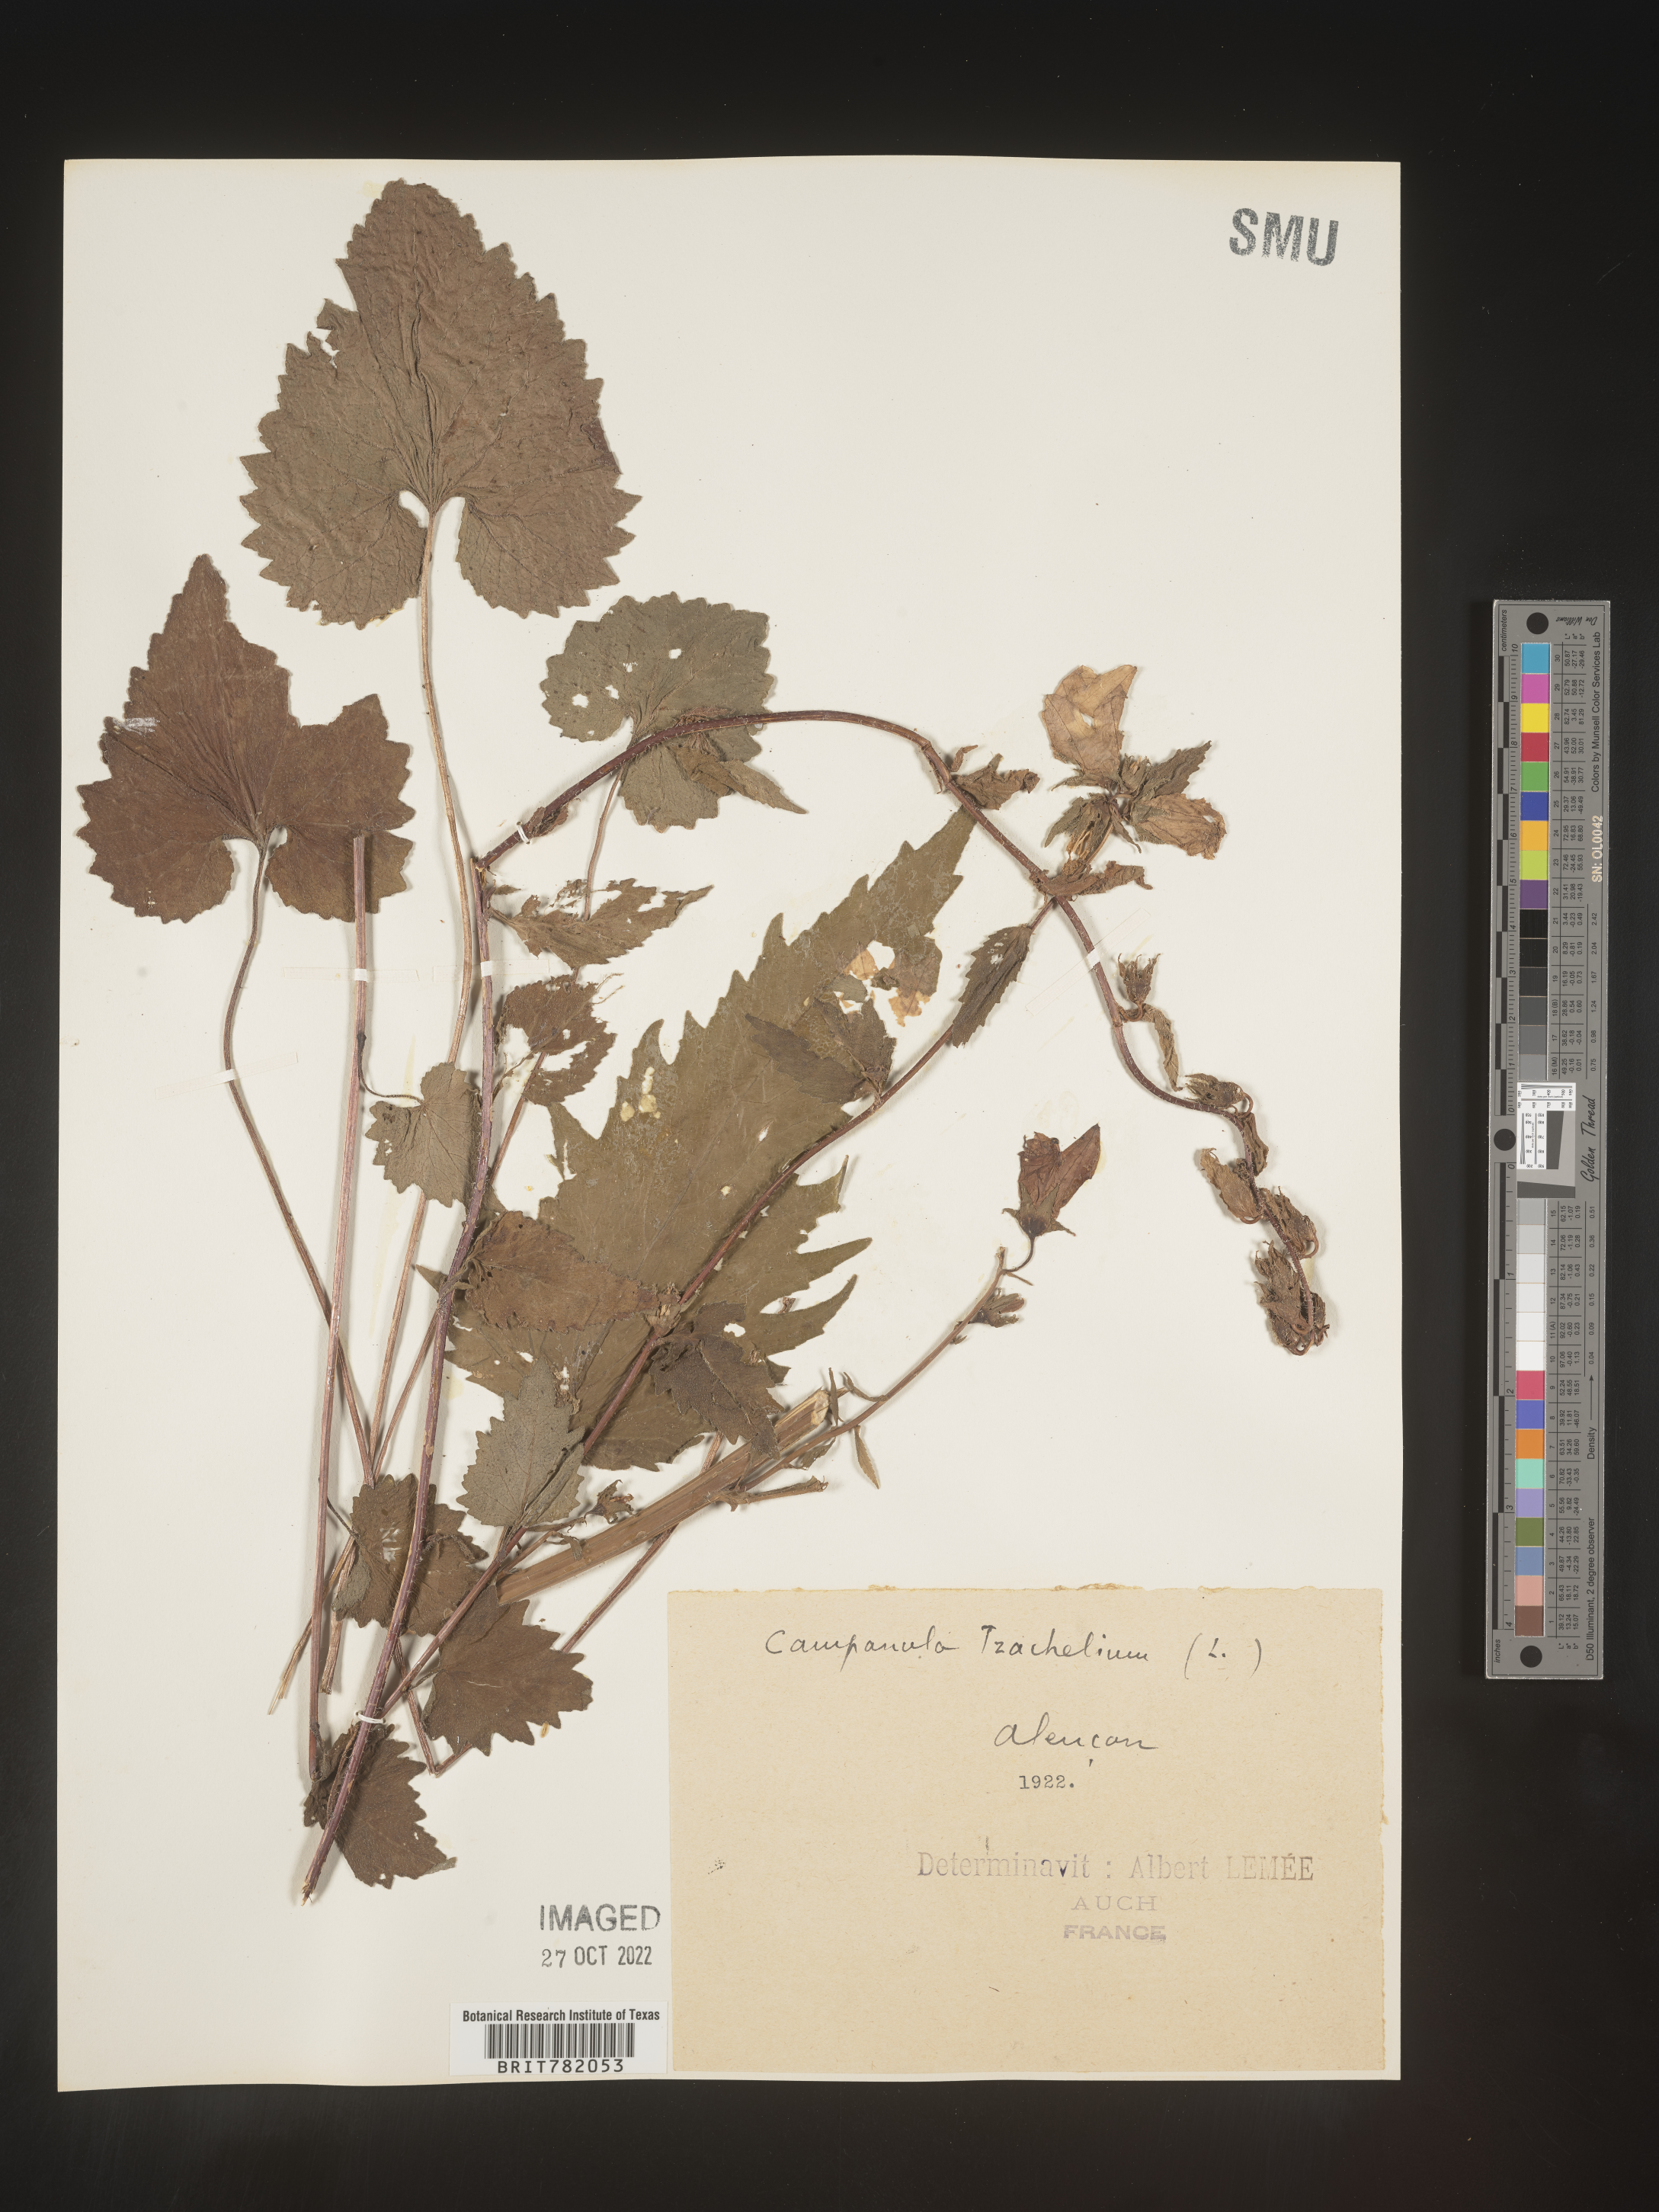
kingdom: Plantae
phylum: Tracheophyta
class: Magnoliopsida
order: Asterales
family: Campanulaceae
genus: Campanula
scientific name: Campanula
